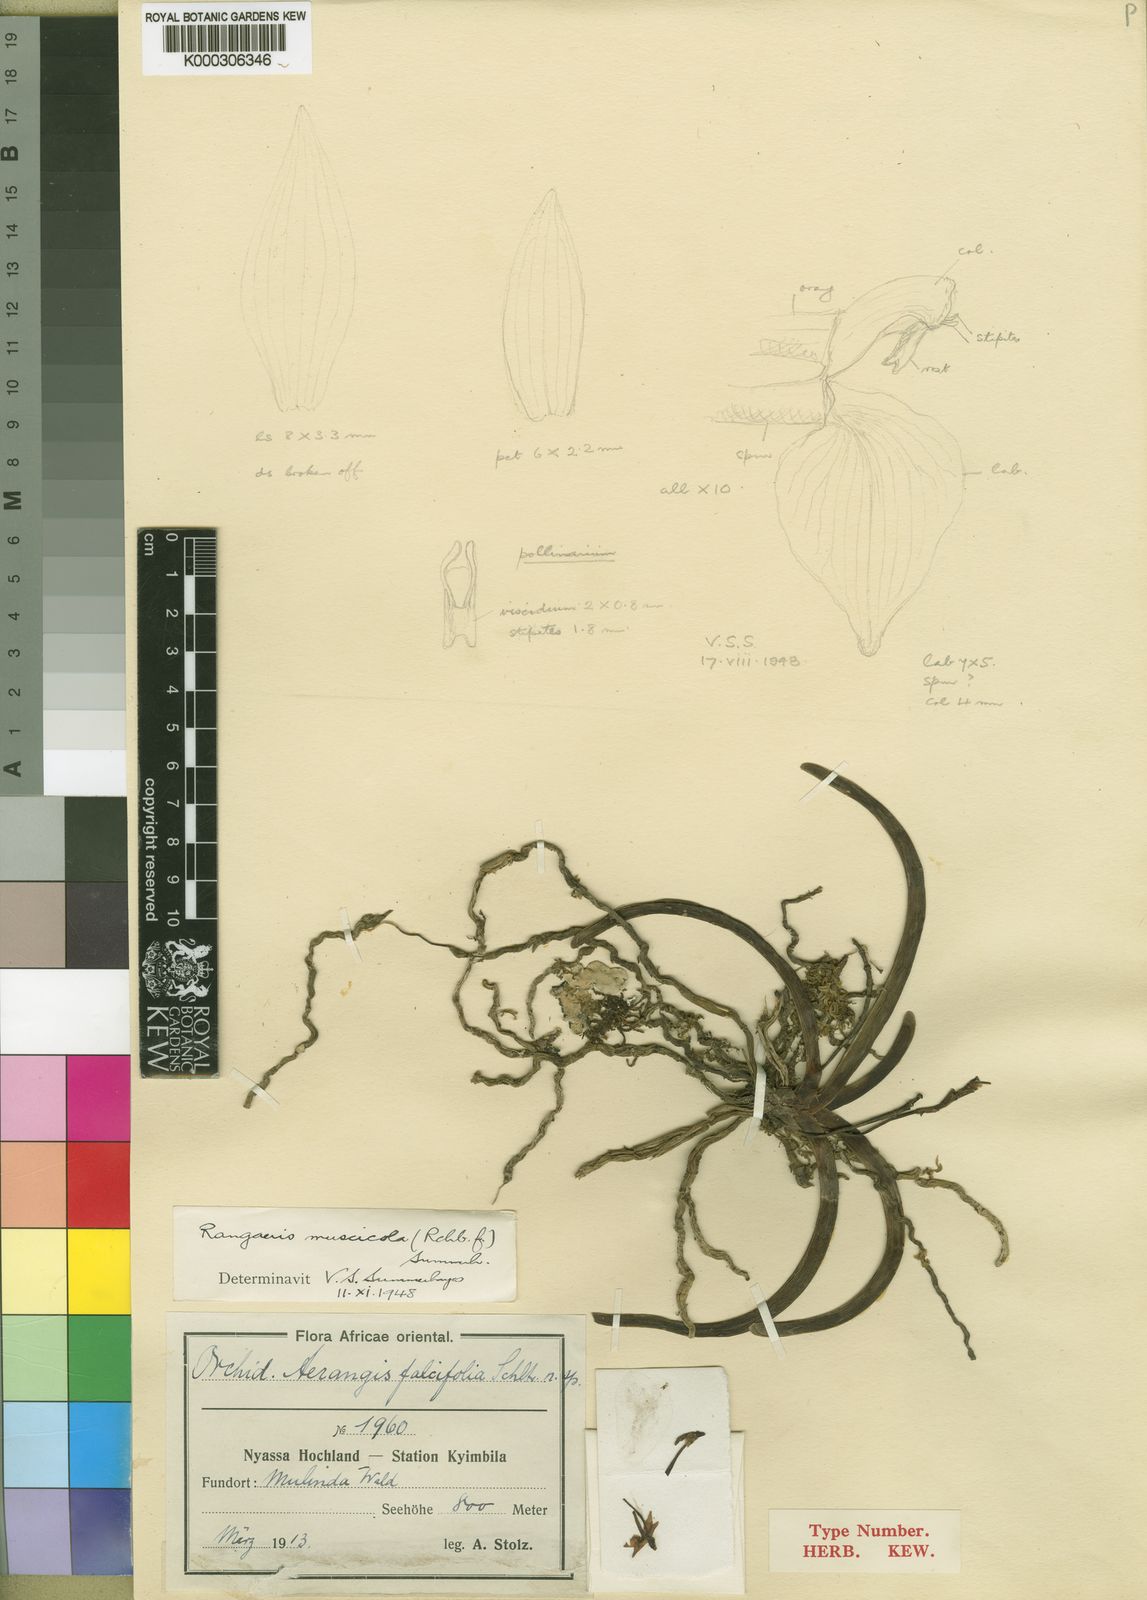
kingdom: Plantae
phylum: Tracheophyta
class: Liliopsida
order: Asparagales
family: Orchidaceae
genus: Rangaeris
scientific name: Rangaeris muscicola
